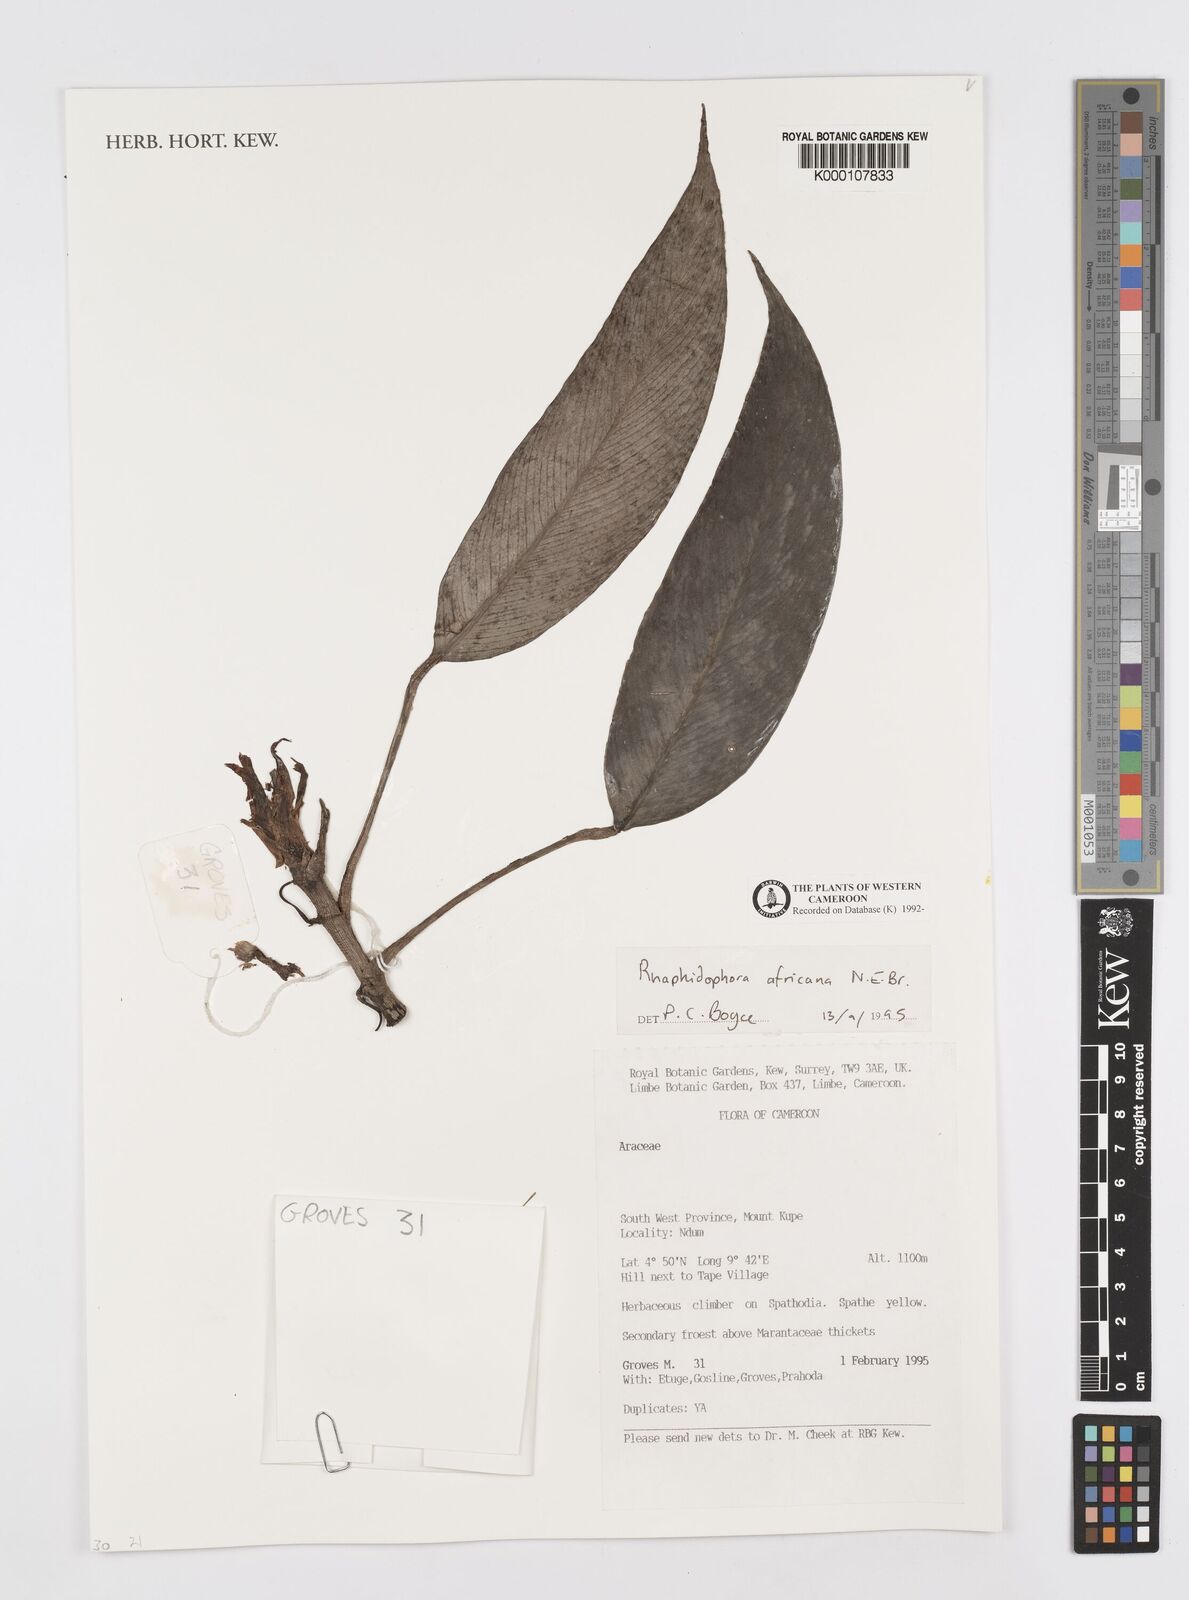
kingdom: Plantae
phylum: Tracheophyta
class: Liliopsida
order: Alismatales
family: Araceae
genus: Rhaphidophora
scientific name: Rhaphidophora africana
